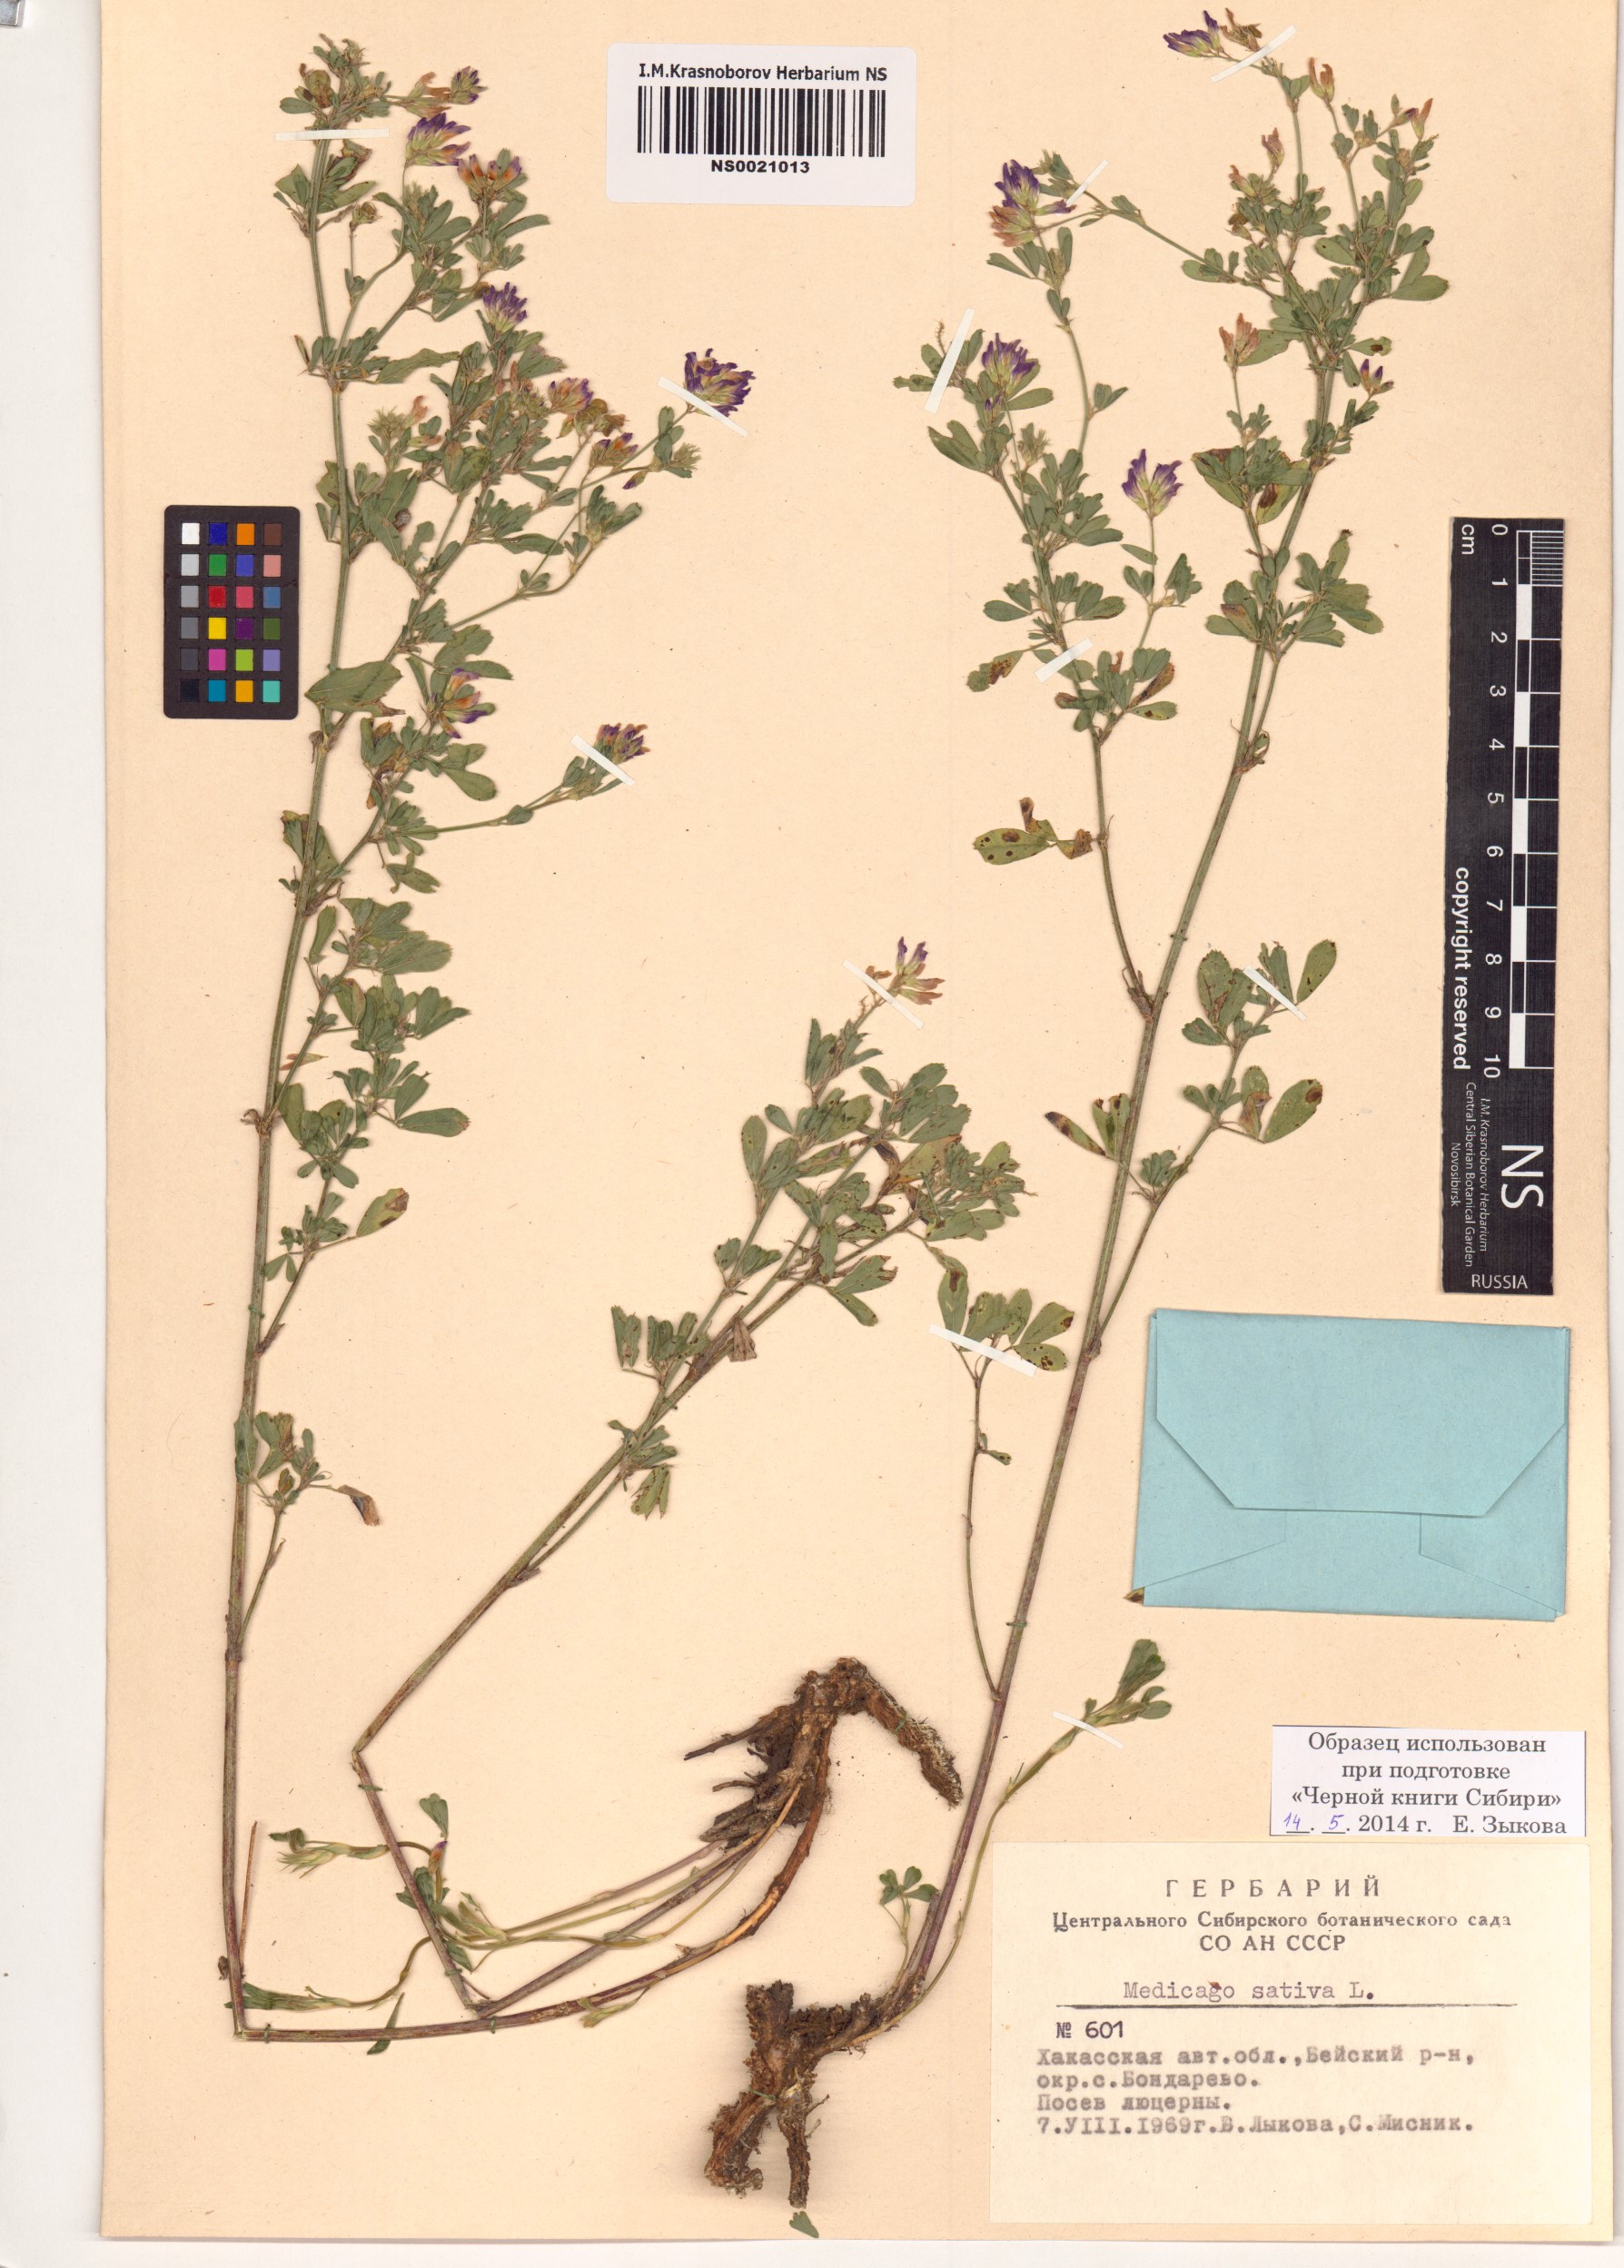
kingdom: Plantae
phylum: Tracheophyta
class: Magnoliopsida
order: Fabales
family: Fabaceae
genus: Medicago
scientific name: Medicago sativa
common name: Alfalfa
